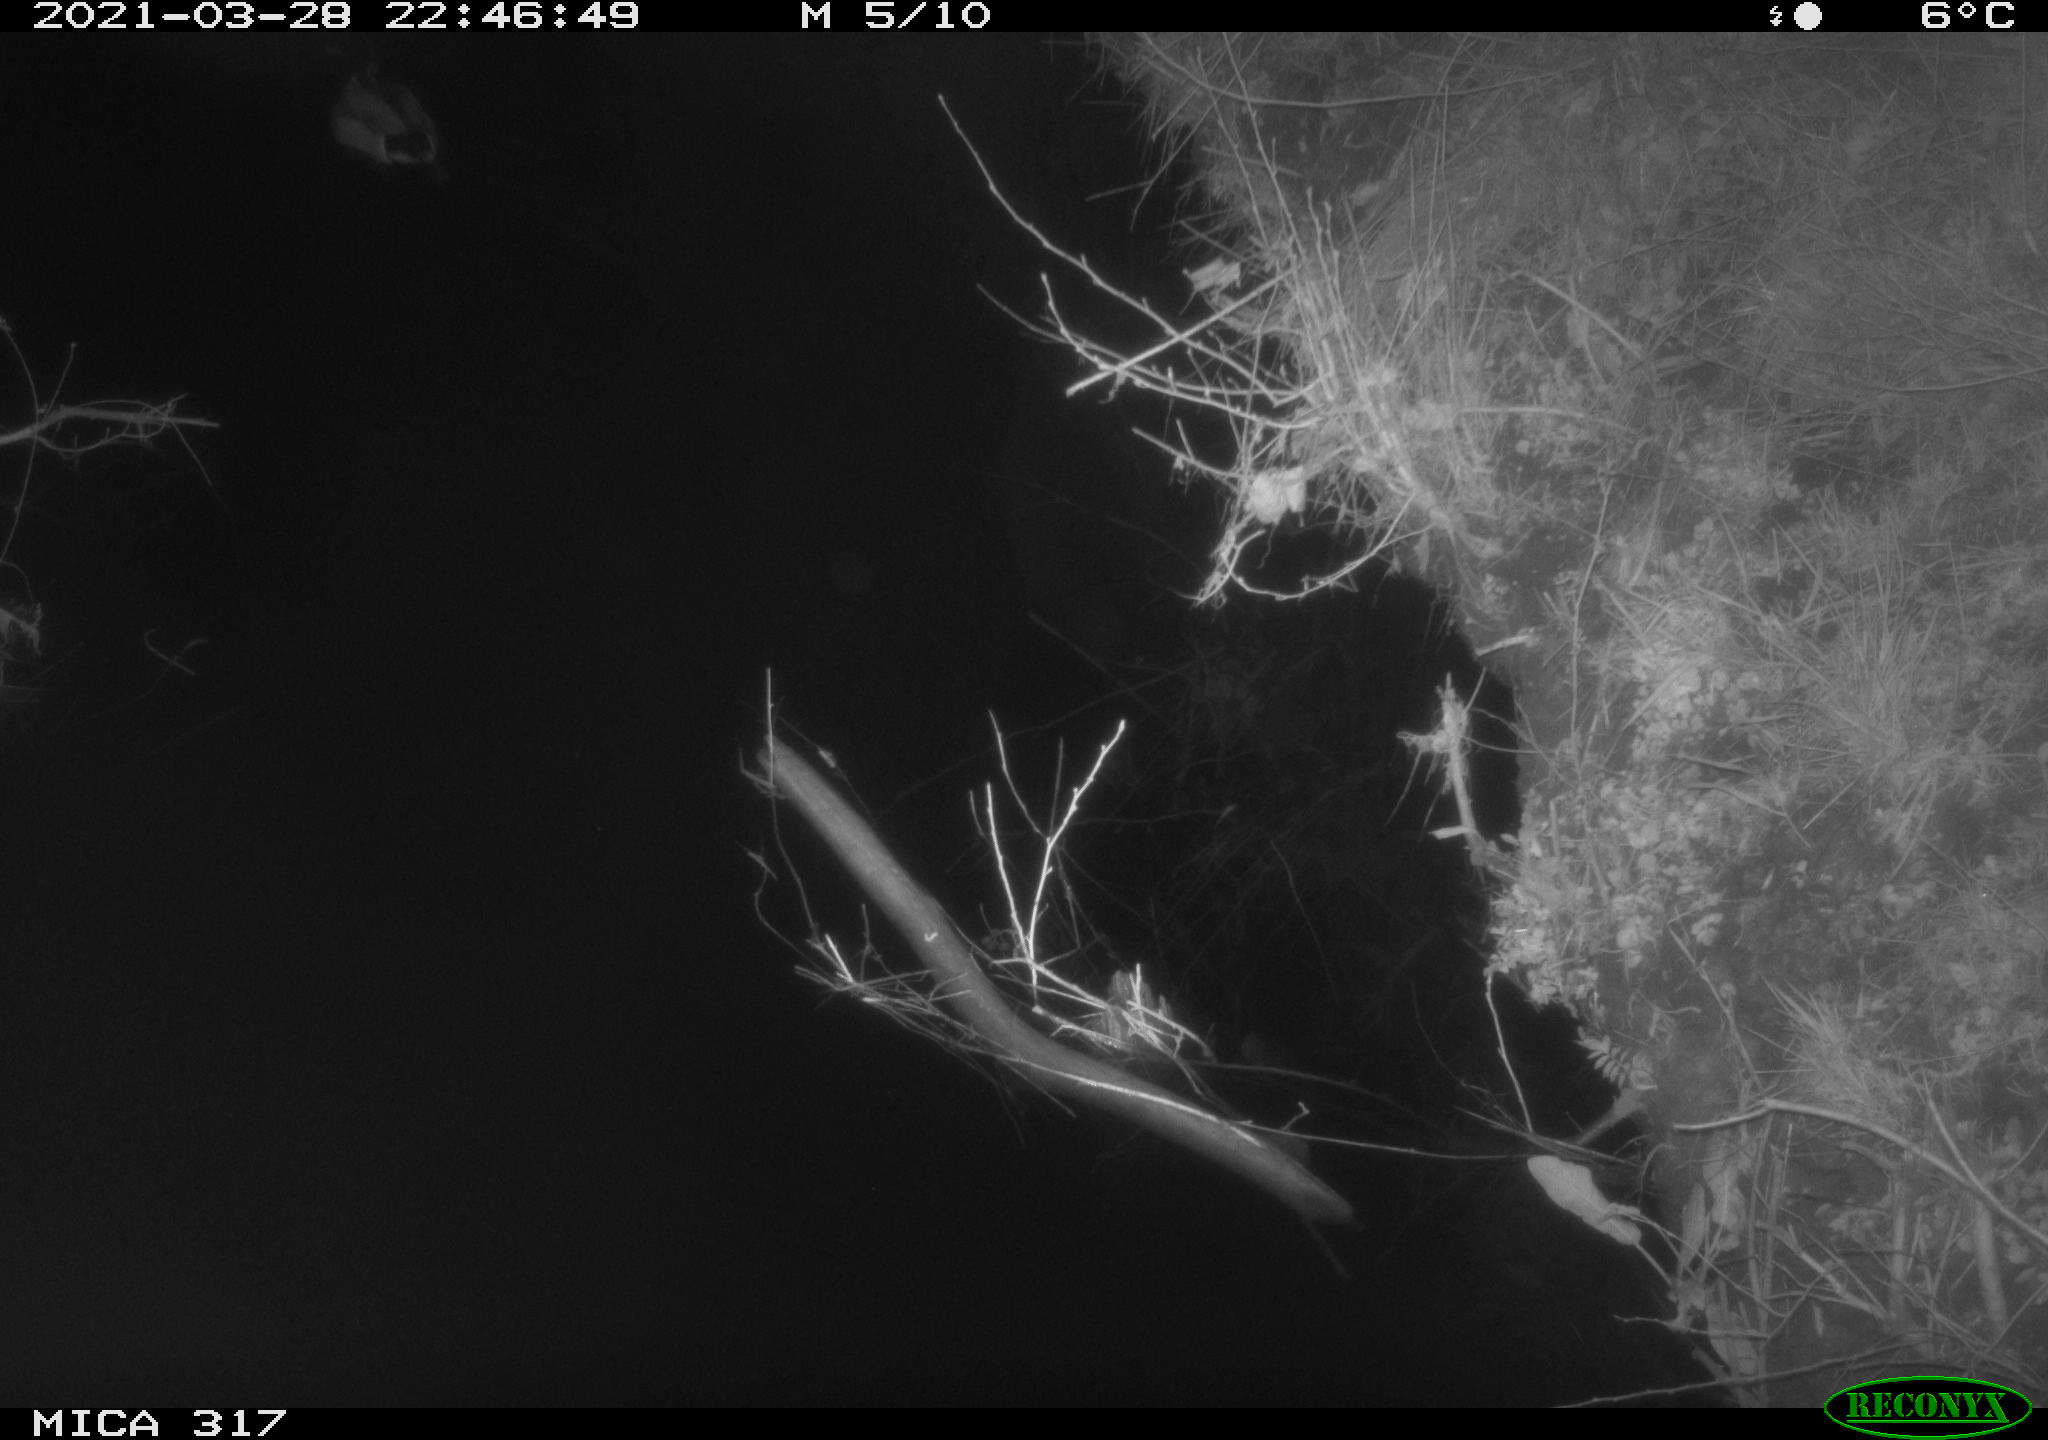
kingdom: Animalia
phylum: Chordata
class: Aves
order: Anseriformes
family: Anatidae
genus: Anas
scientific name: Anas platyrhynchos
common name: Mallard
